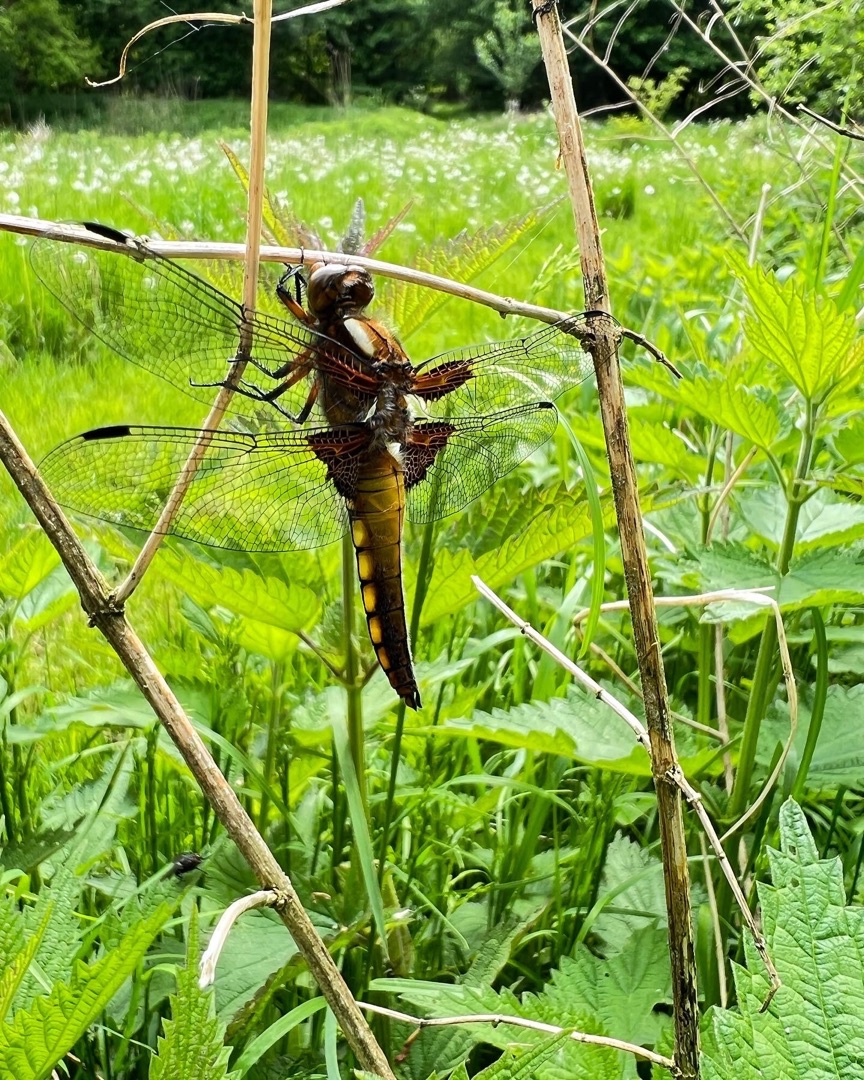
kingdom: Animalia
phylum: Arthropoda
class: Insecta
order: Odonata
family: Libellulidae
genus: Libellula
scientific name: Libellula depressa
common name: Blå libel
